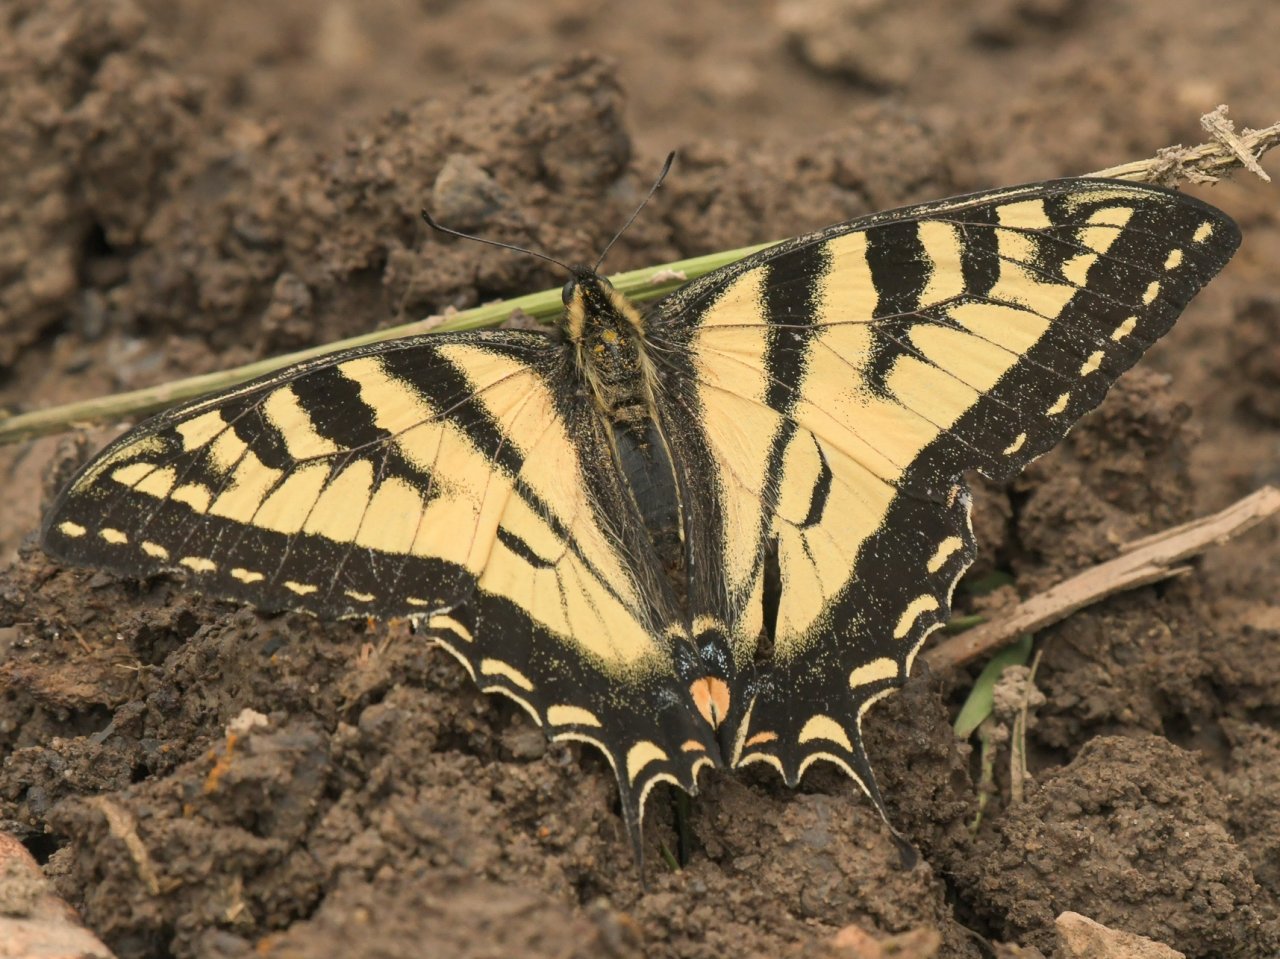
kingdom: Animalia
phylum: Arthropoda
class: Insecta
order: Lepidoptera
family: Papilionidae
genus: Pterourus
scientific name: Pterourus canadensis
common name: Canadian Tiger Swallowtail
